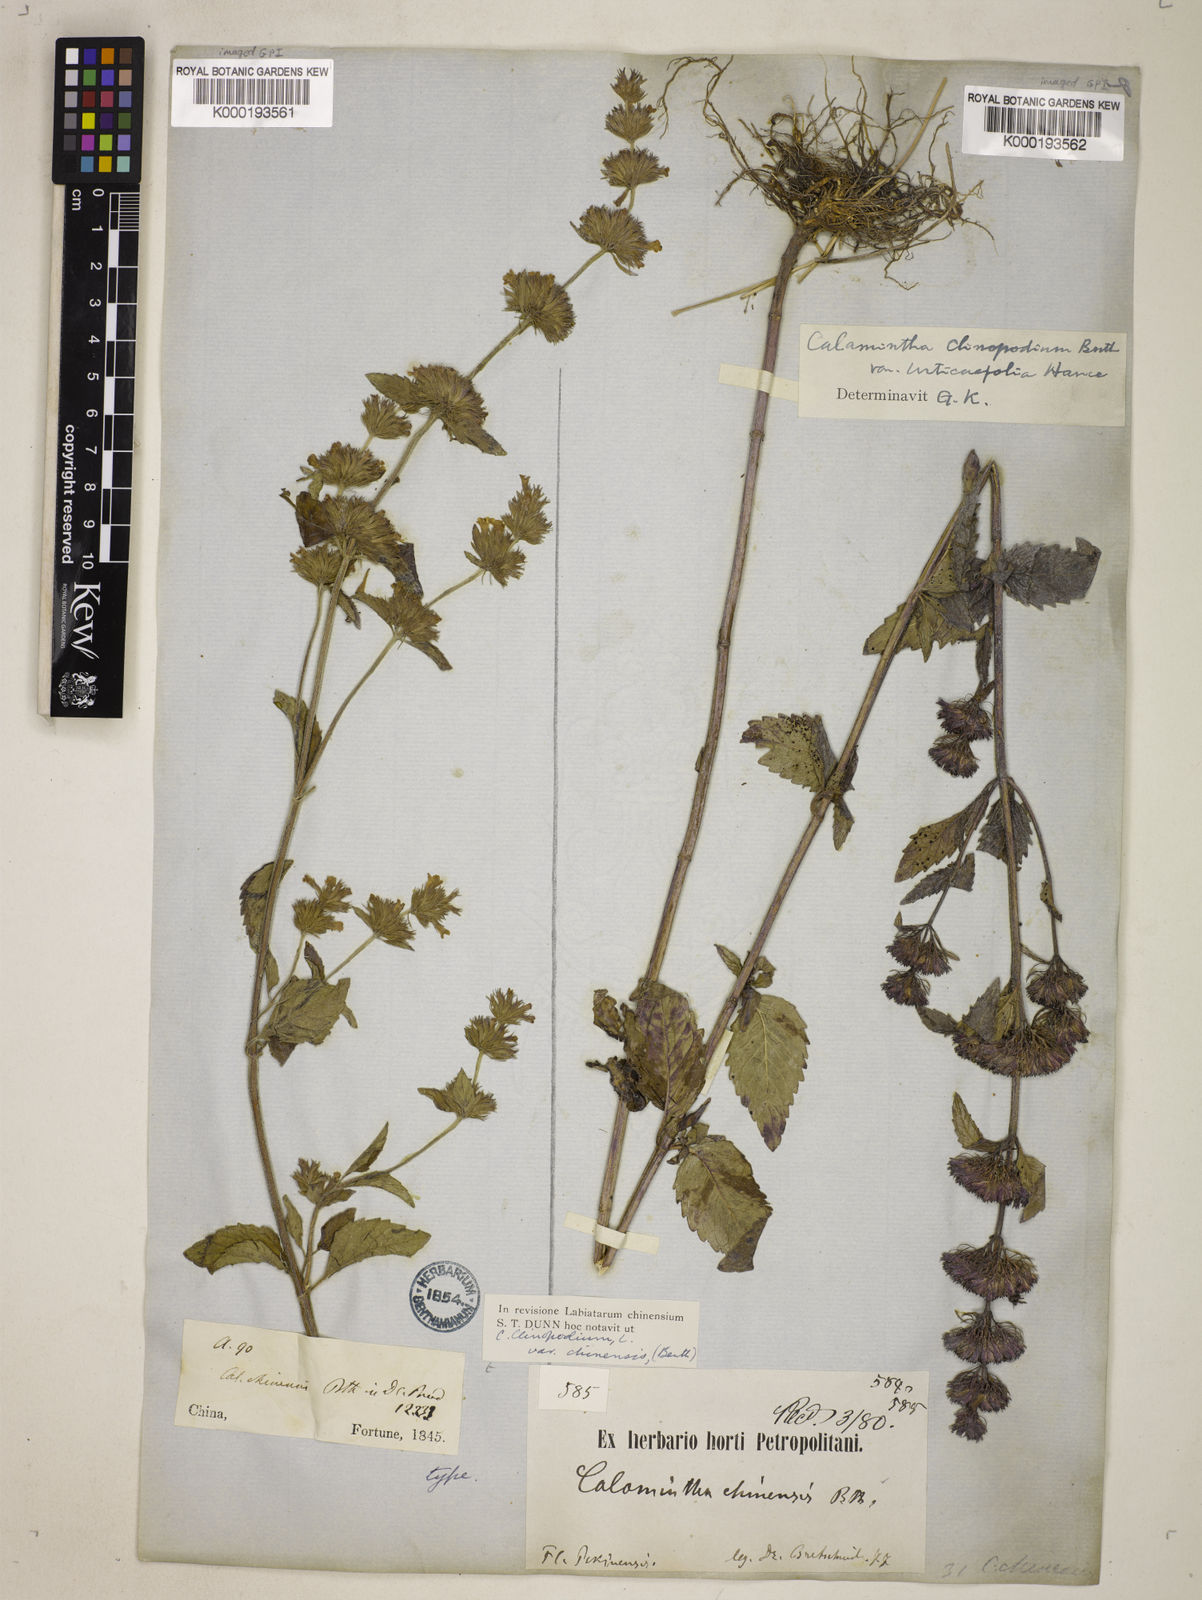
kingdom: Plantae
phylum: Tracheophyta
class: Magnoliopsida
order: Lamiales
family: Lamiaceae
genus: Clinopodium
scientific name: Clinopodium chinense
